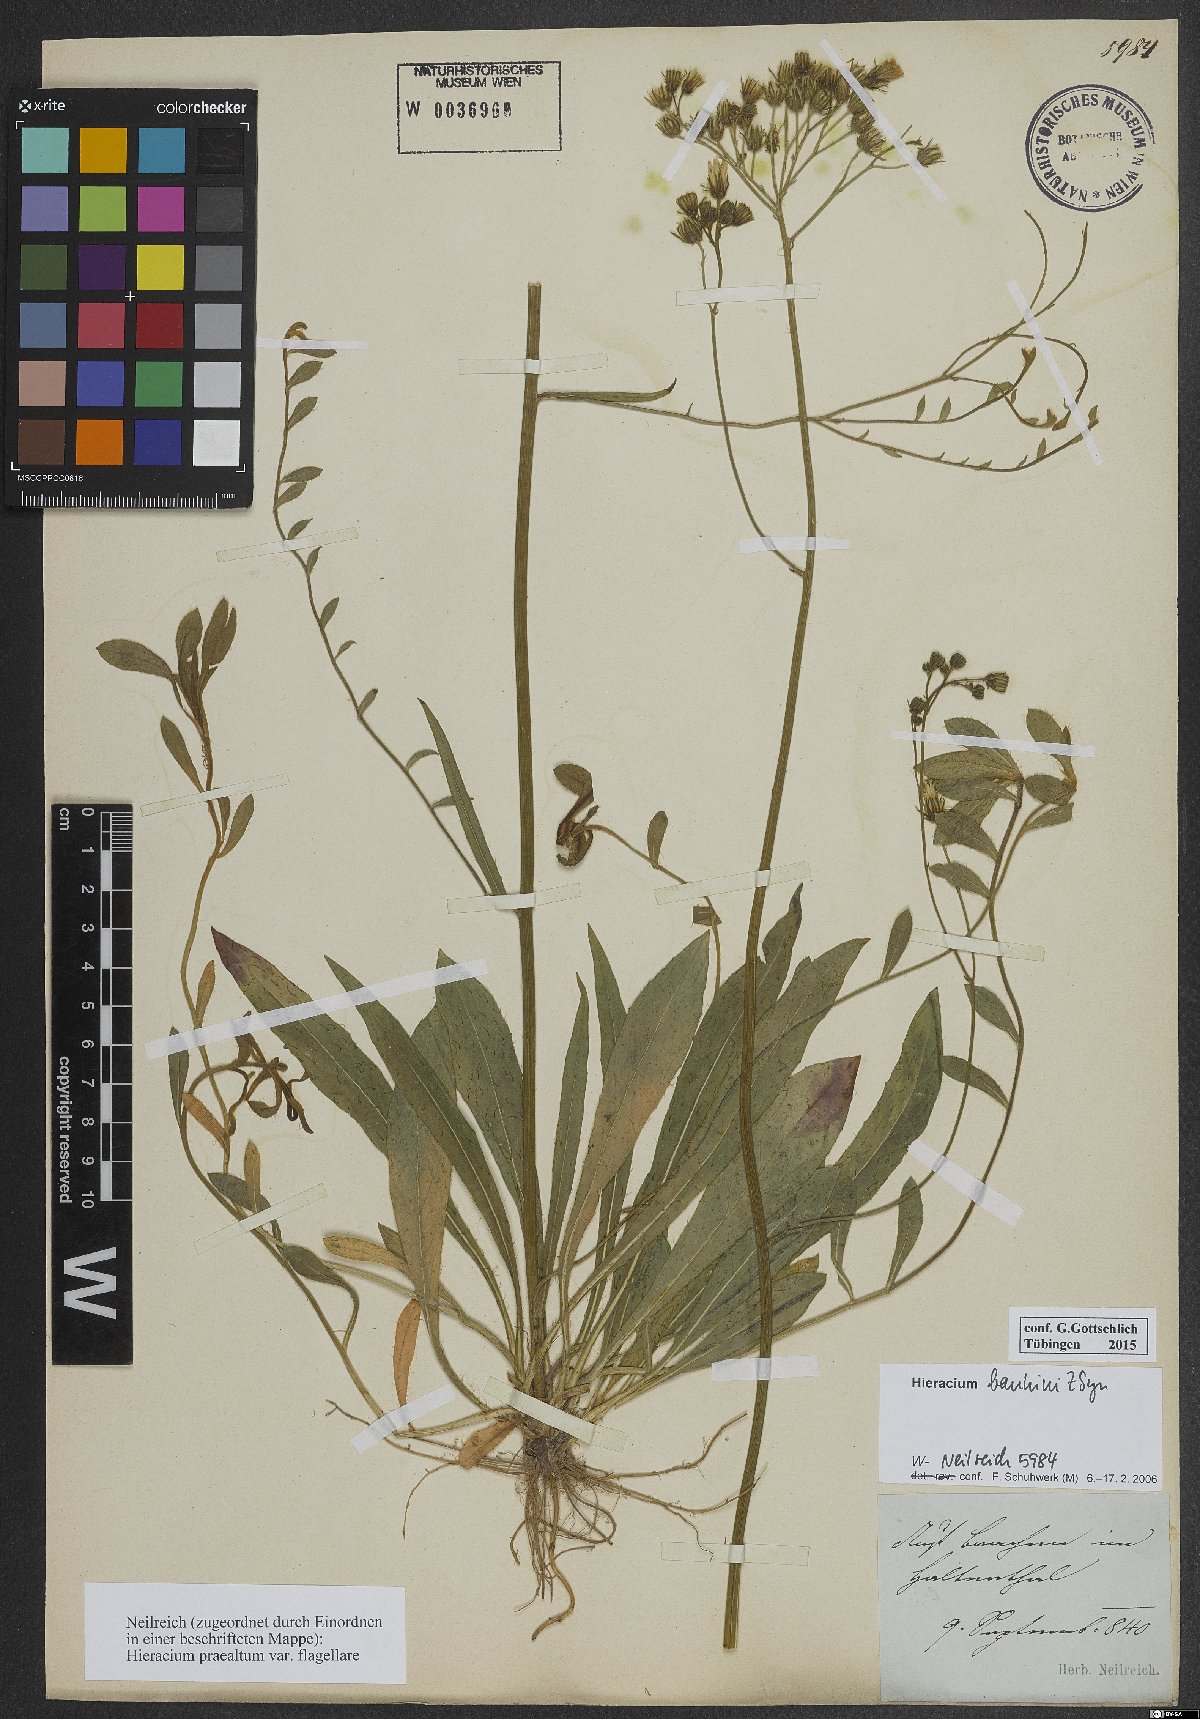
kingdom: Plantae
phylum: Tracheophyta
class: Magnoliopsida
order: Asterales
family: Asteraceae
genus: Pilosella
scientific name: Pilosella bauhini
